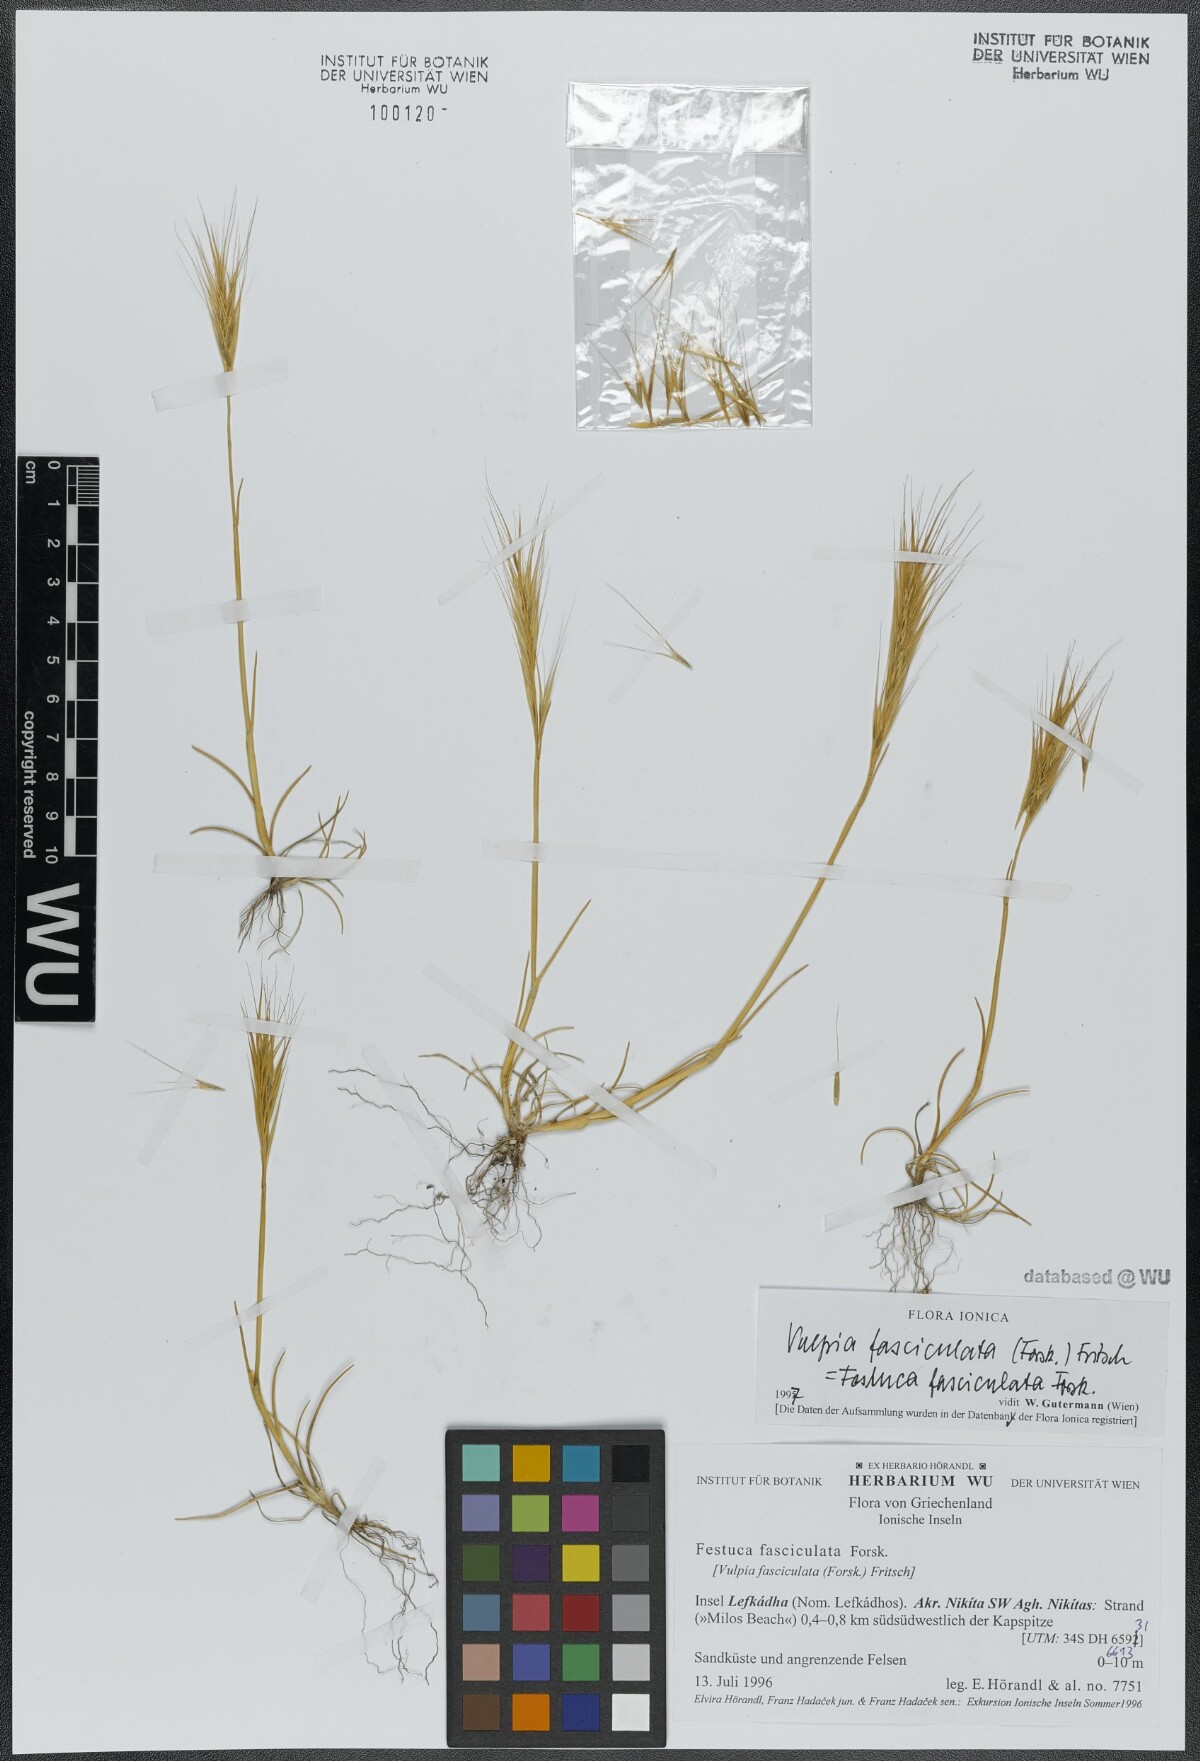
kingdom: Plantae
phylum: Tracheophyta
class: Liliopsida
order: Poales
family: Poaceae
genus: Festuca
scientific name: Festuca fasciculata
